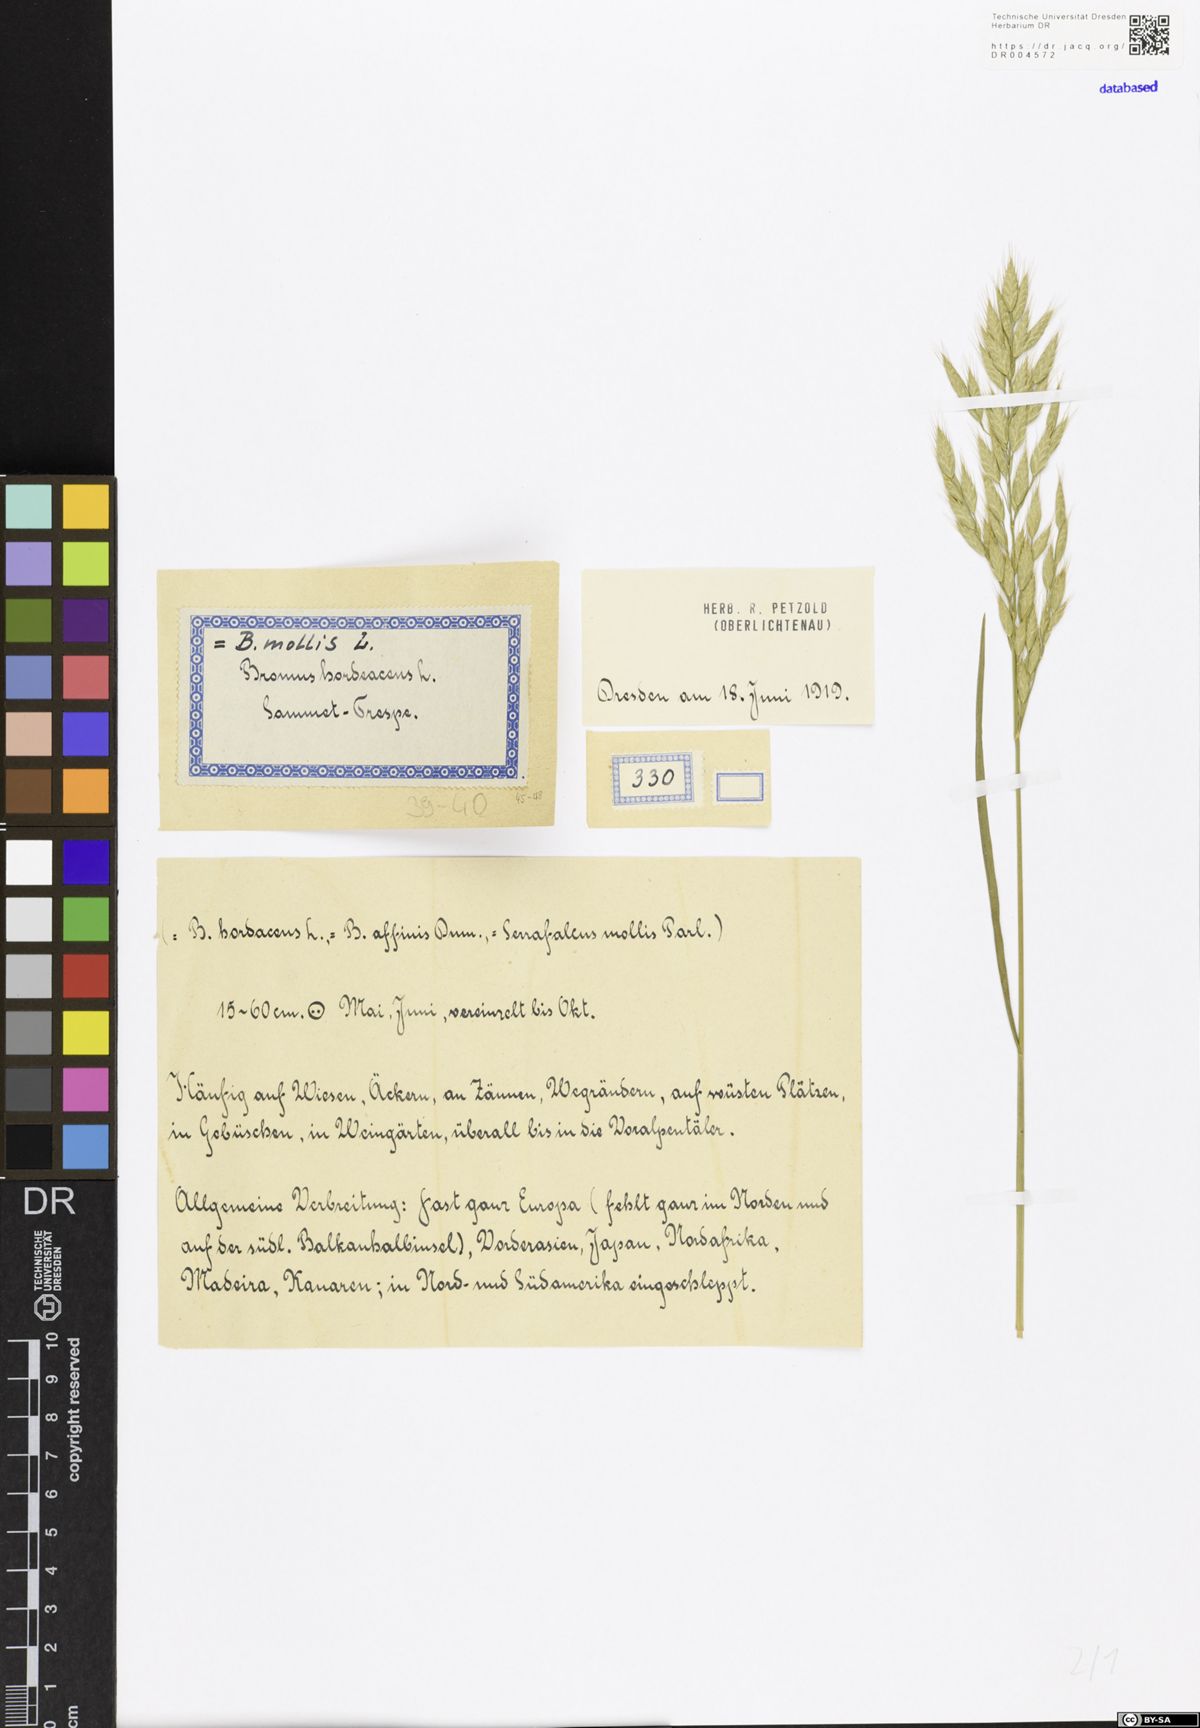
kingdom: Plantae
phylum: Tracheophyta
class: Liliopsida
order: Poales
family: Poaceae
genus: Bromus
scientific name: Bromus hordeaceus
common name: Soft brome
